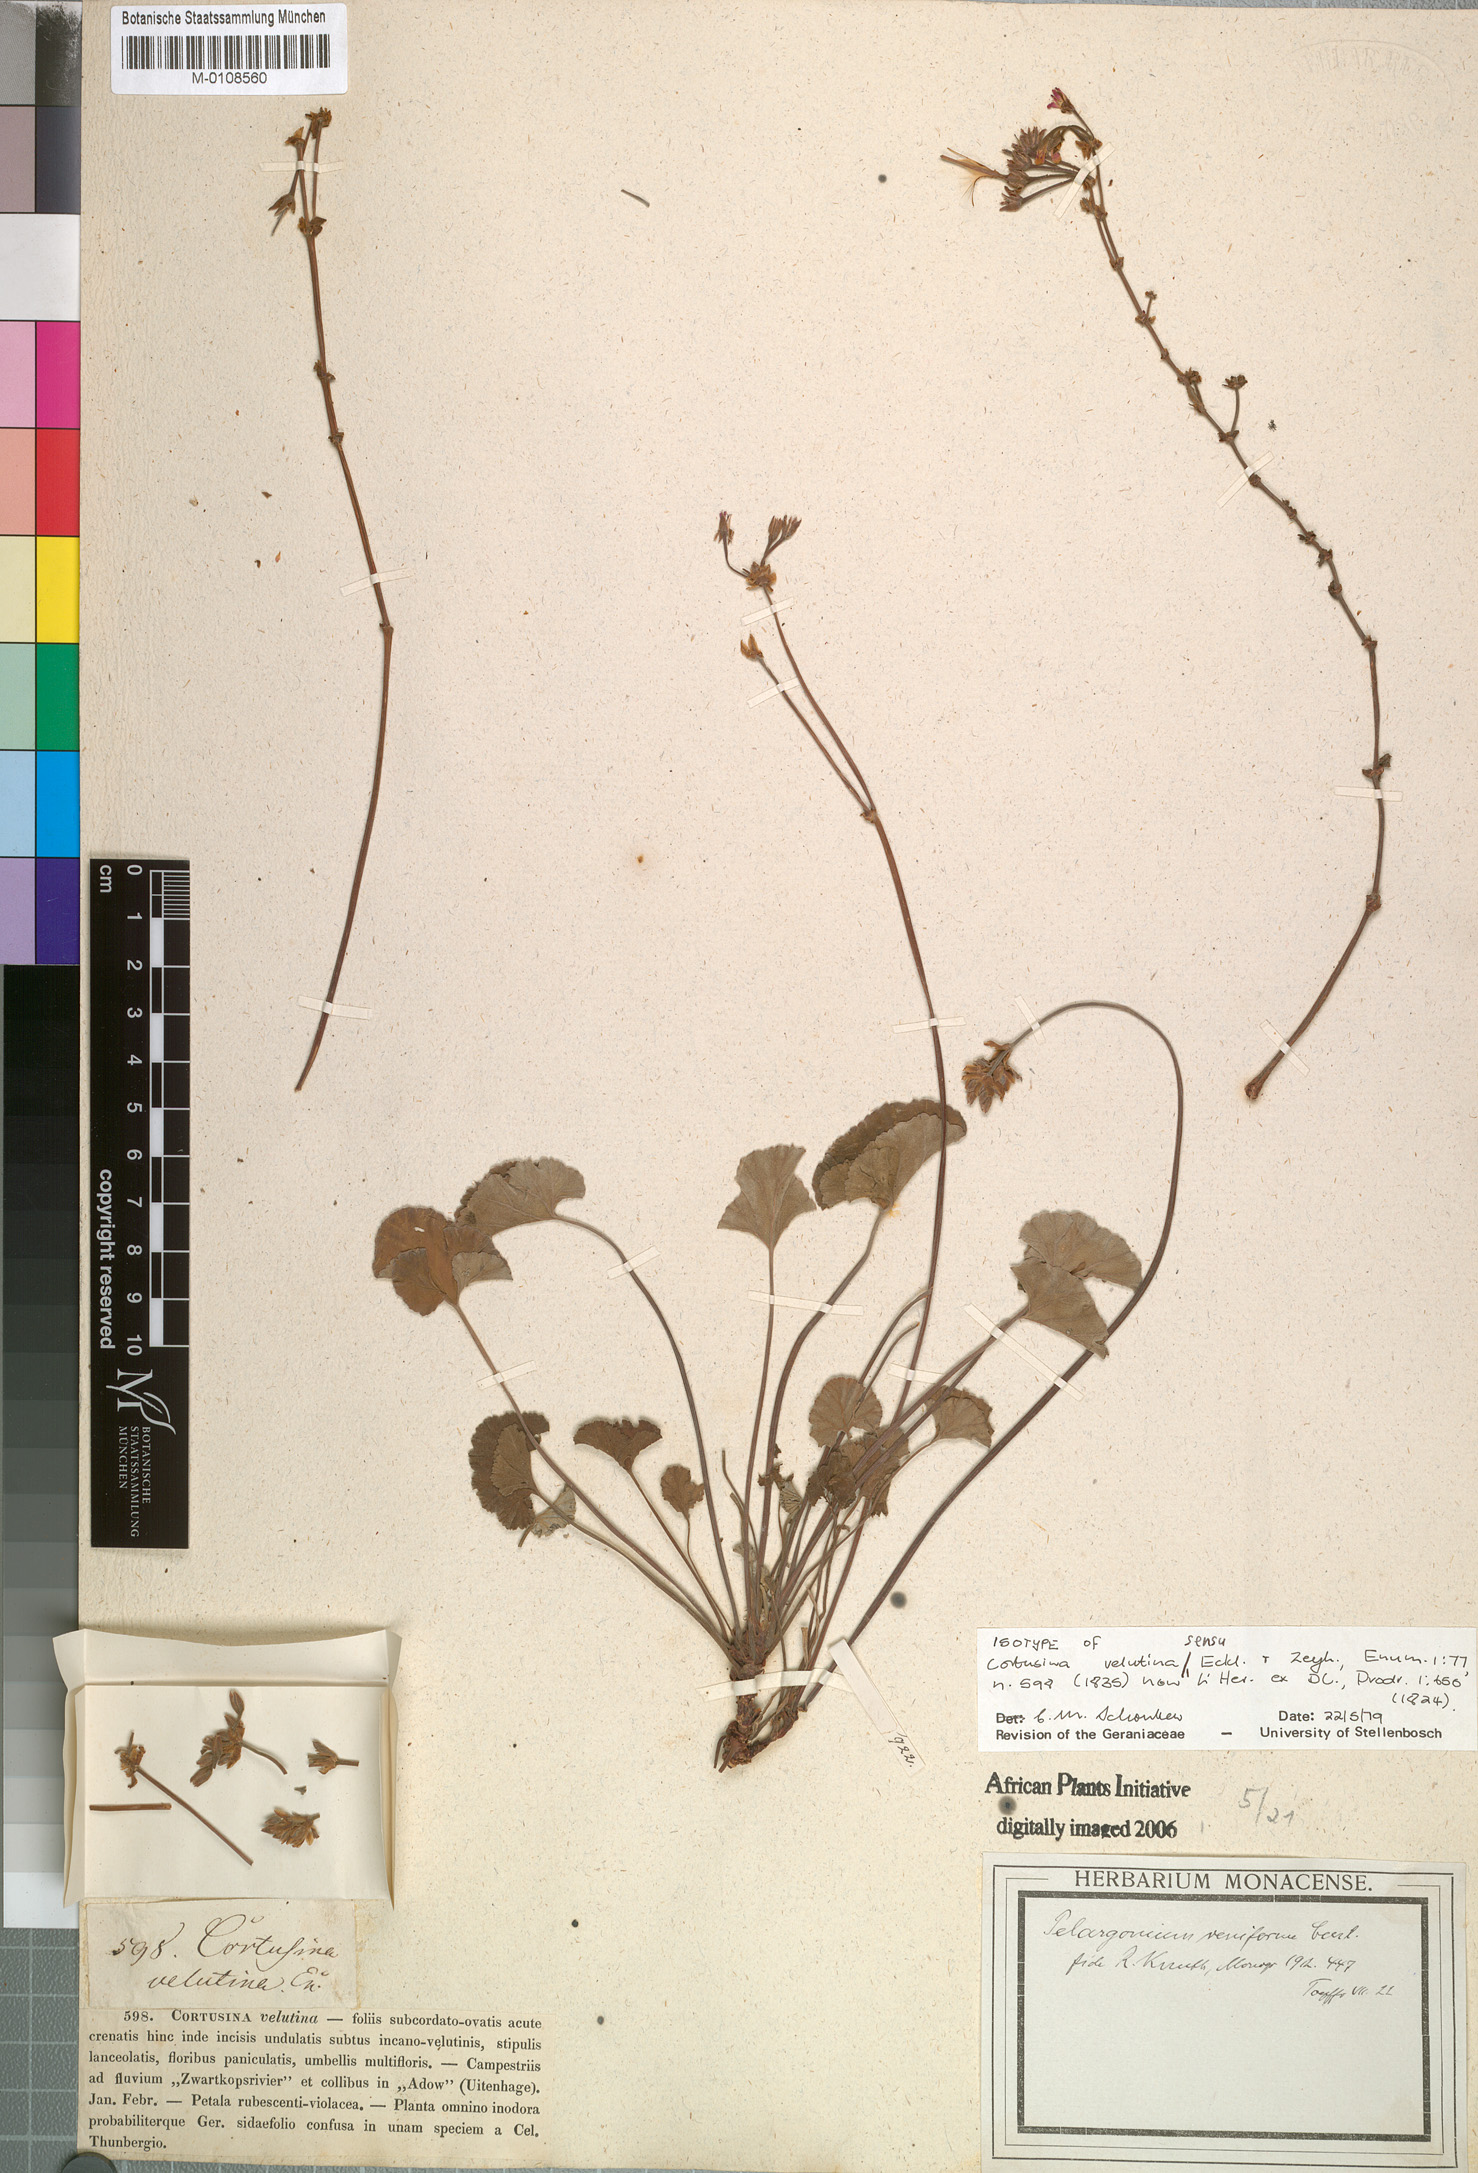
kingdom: Plantae
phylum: Tracheophyta
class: Magnoliopsida
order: Geraniales
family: Geraniaceae
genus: Pelargonium
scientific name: Pelargonium reniforme
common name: Kidney-leaf pelargonium
